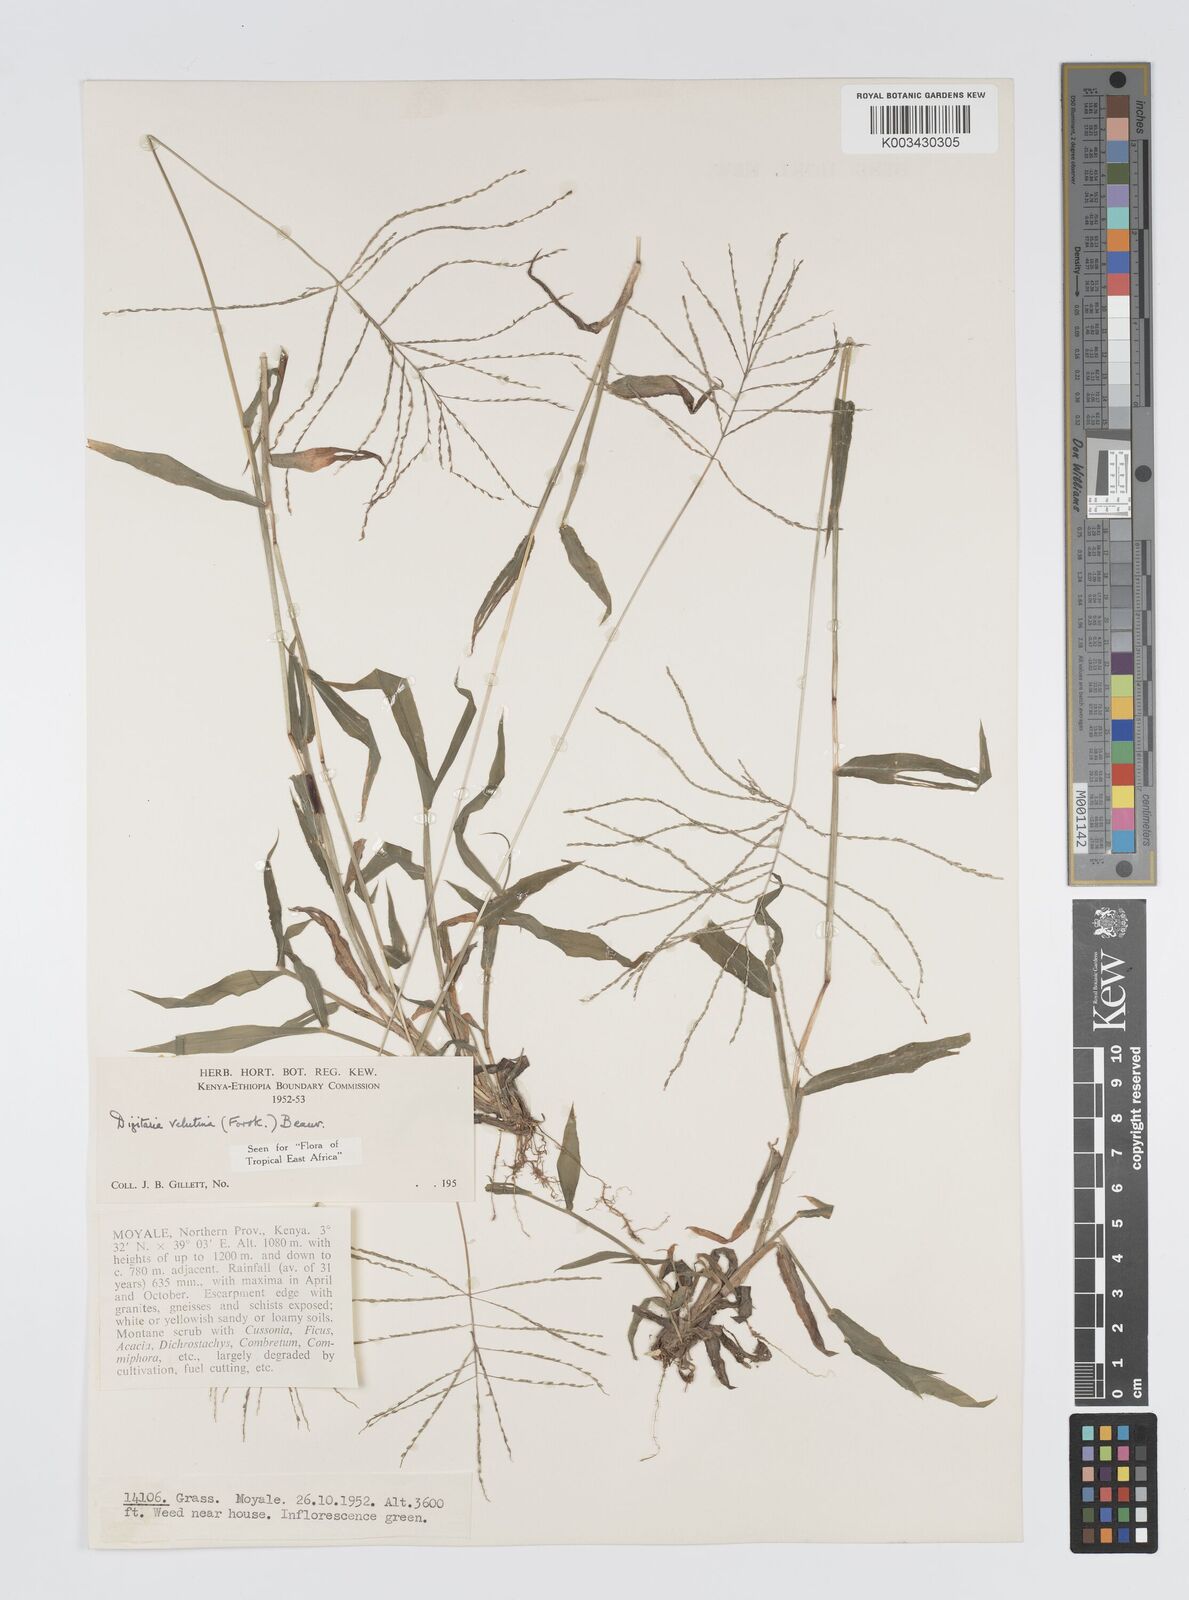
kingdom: Plantae
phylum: Tracheophyta
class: Liliopsida
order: Poales
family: Poaceae
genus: Digitaria
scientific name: Digitaria velutina
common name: Long-plume finger grass
